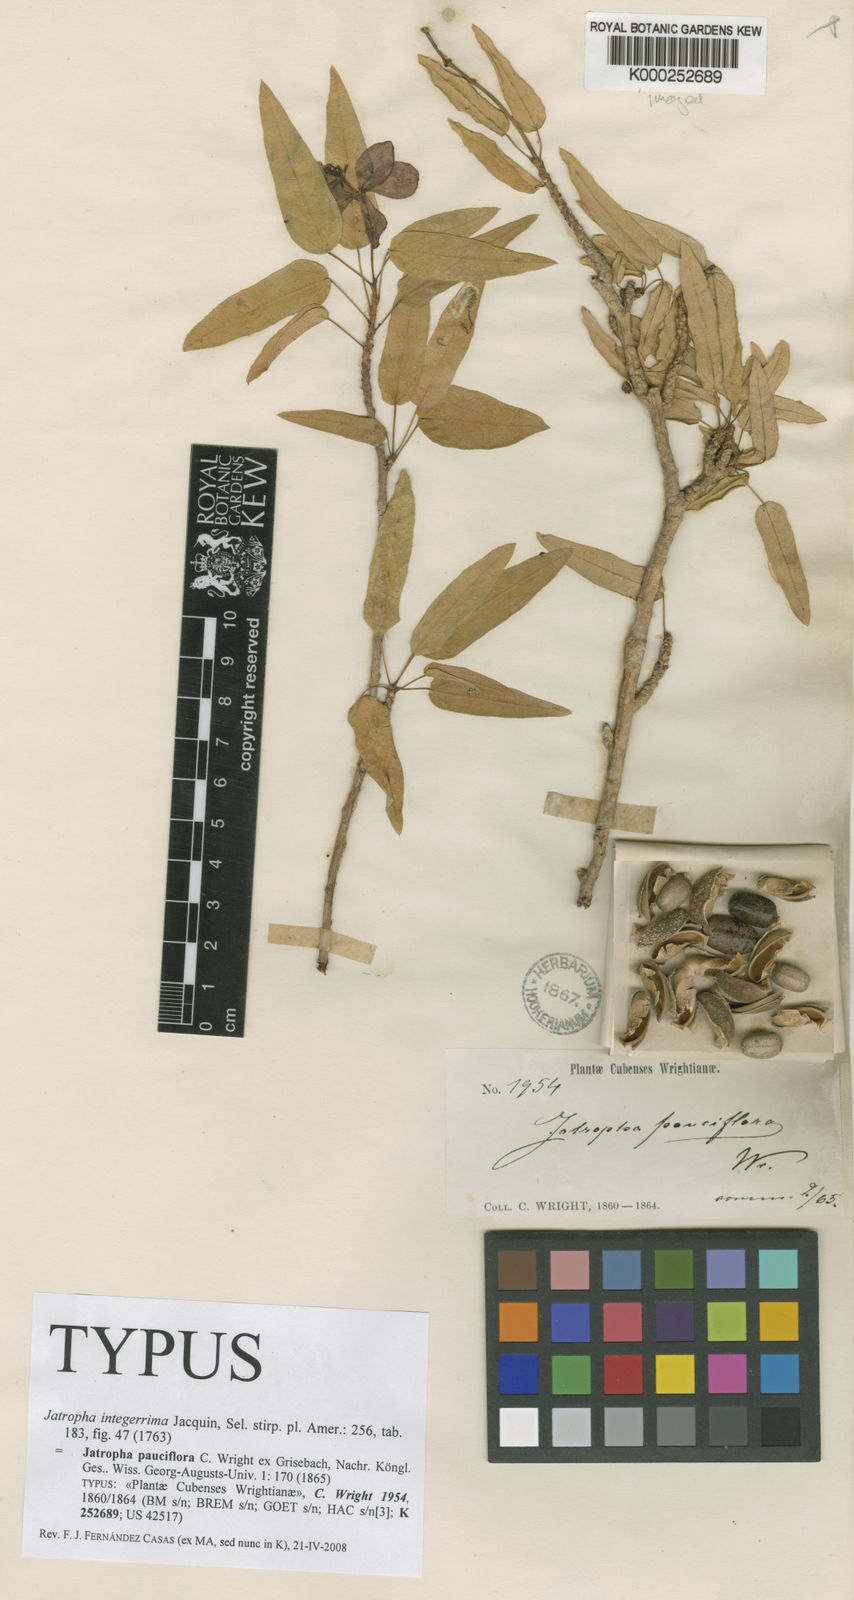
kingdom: Plantae
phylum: Tracheophyta
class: Magnoliopsida
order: Malpighiales
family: Euphorbiaceae
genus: Jatropha
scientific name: Jatropha integerrima
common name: Peregrina
